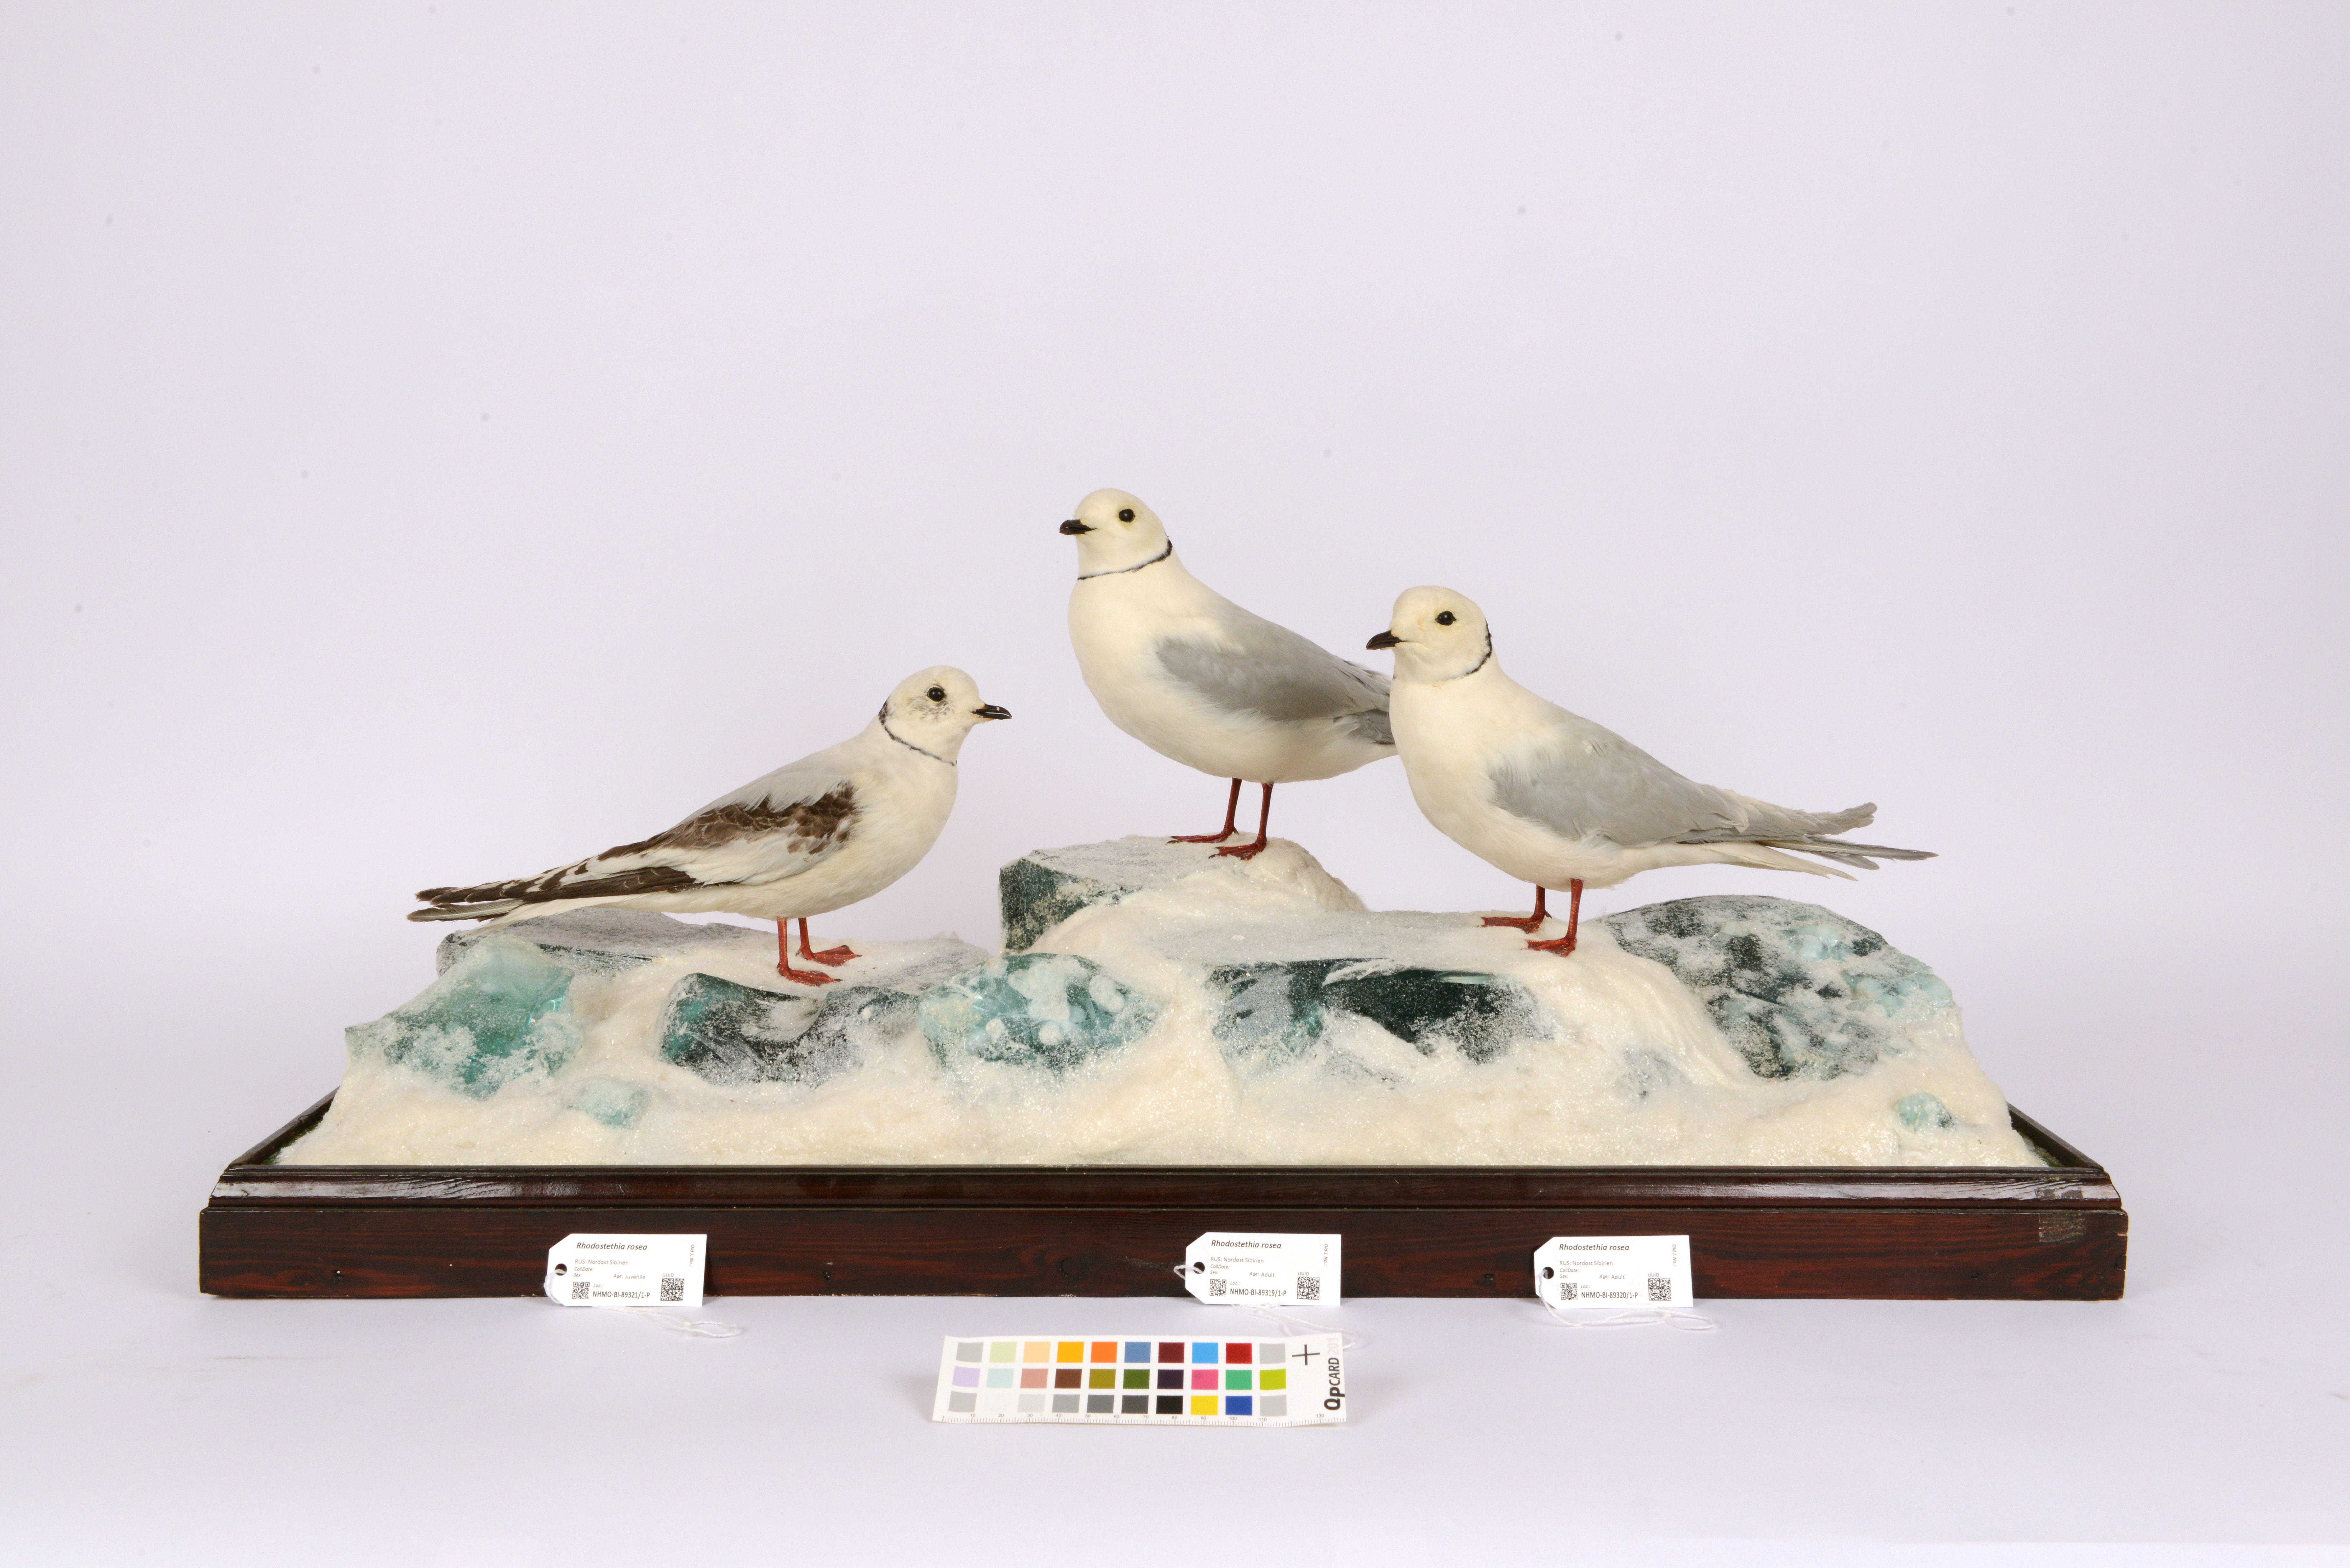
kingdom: Animalia
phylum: Chordata
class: Aves
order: Charadriiformes
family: Laridae
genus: Rhodostethia
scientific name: Rhodostethia rosea
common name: Ross's gull
